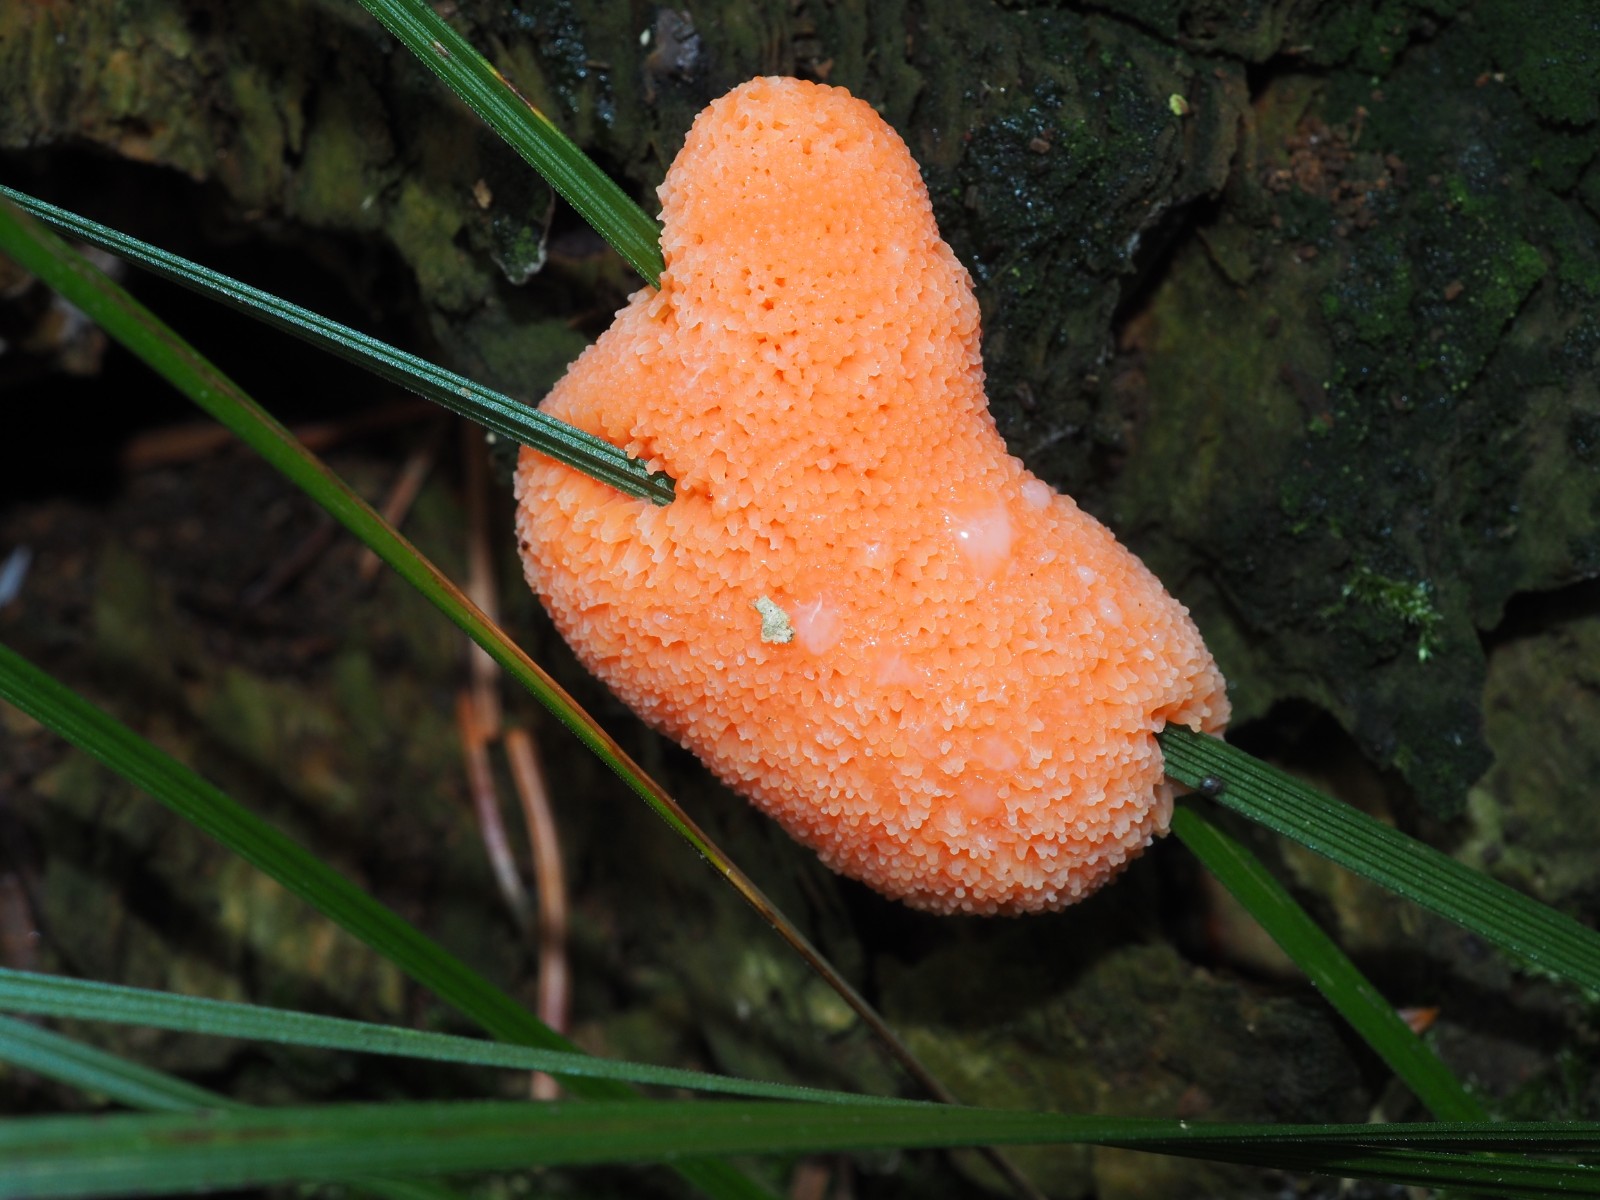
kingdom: Protozoa
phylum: Mycetozoa
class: Myxomycetes
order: Cribrariales
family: Tubiferaceae
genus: Tubifera
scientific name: Tubifera ferruginosa
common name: kanel-støvrør
